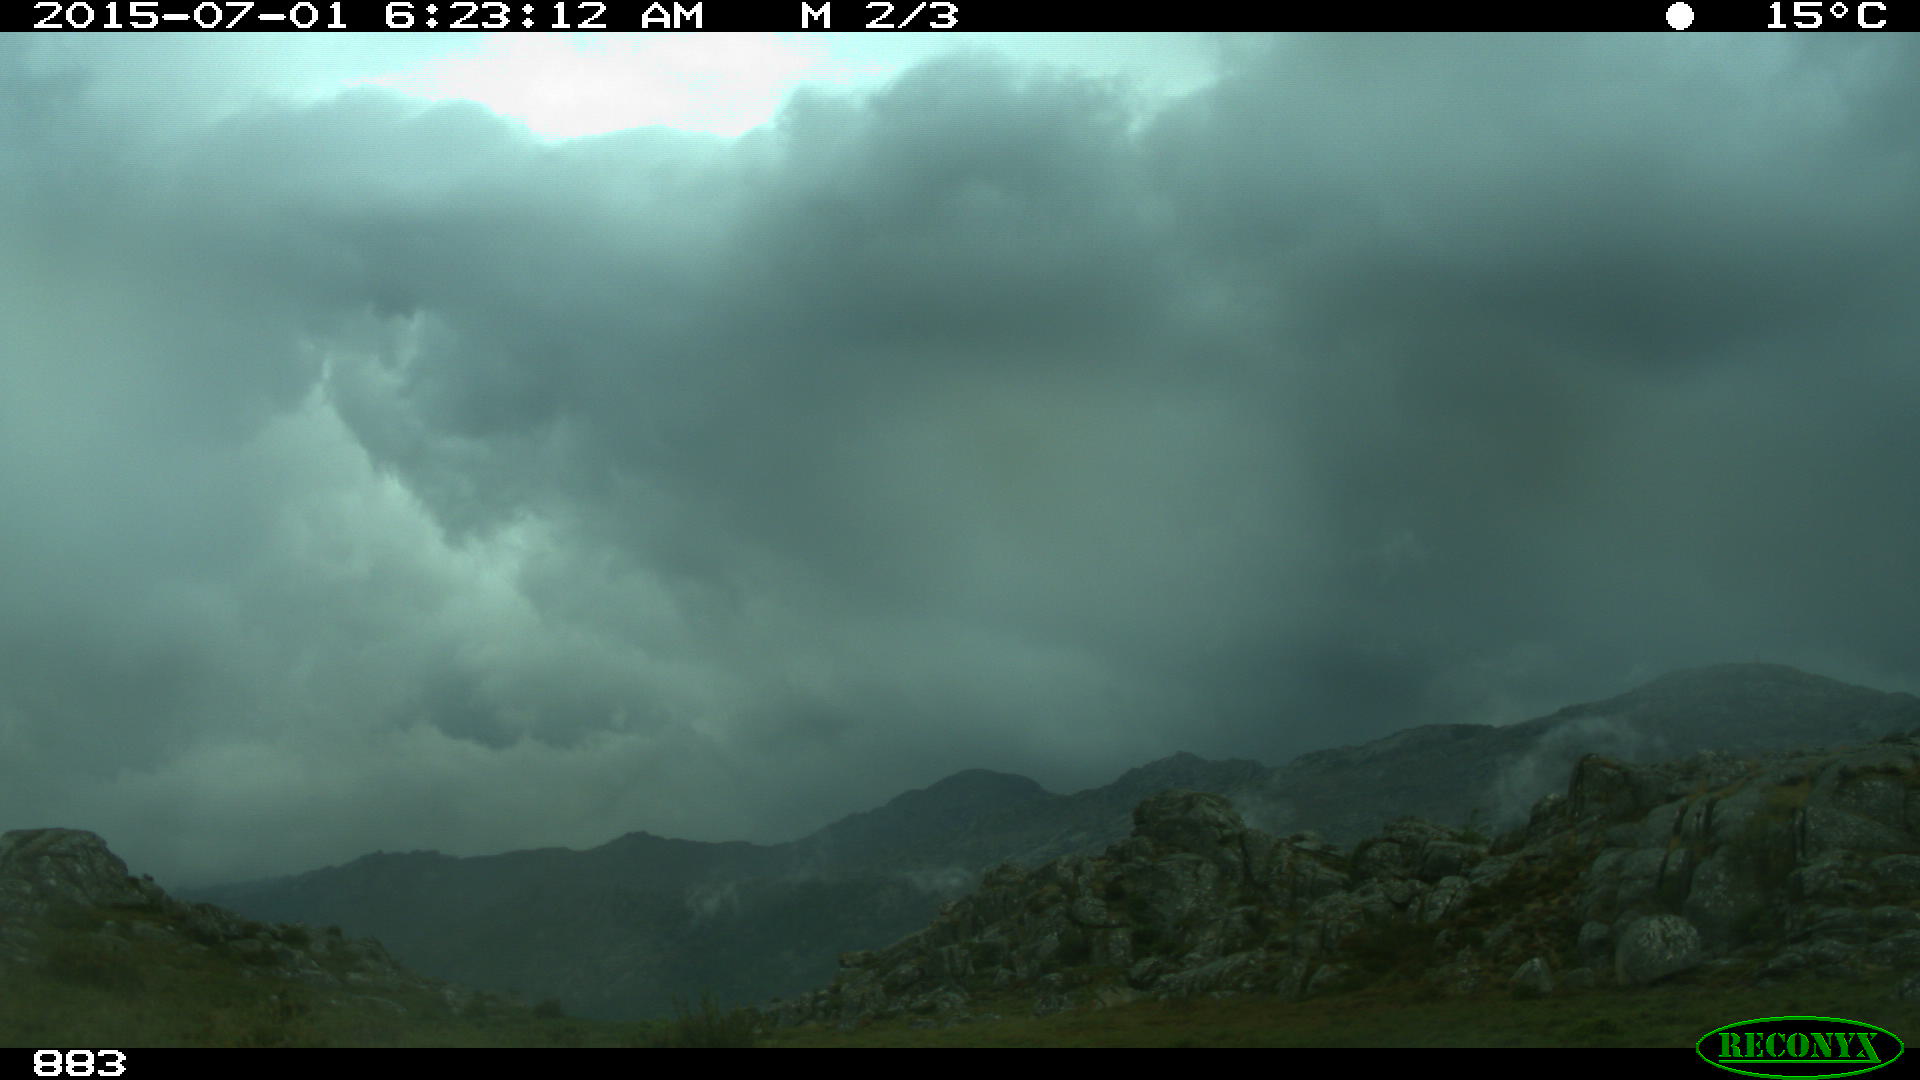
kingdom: Animalia
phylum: Chordata
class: Mammalia
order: Artiodactyla
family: Bovidae
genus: Bos
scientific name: Bos taurus
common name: Domesticated cattle
